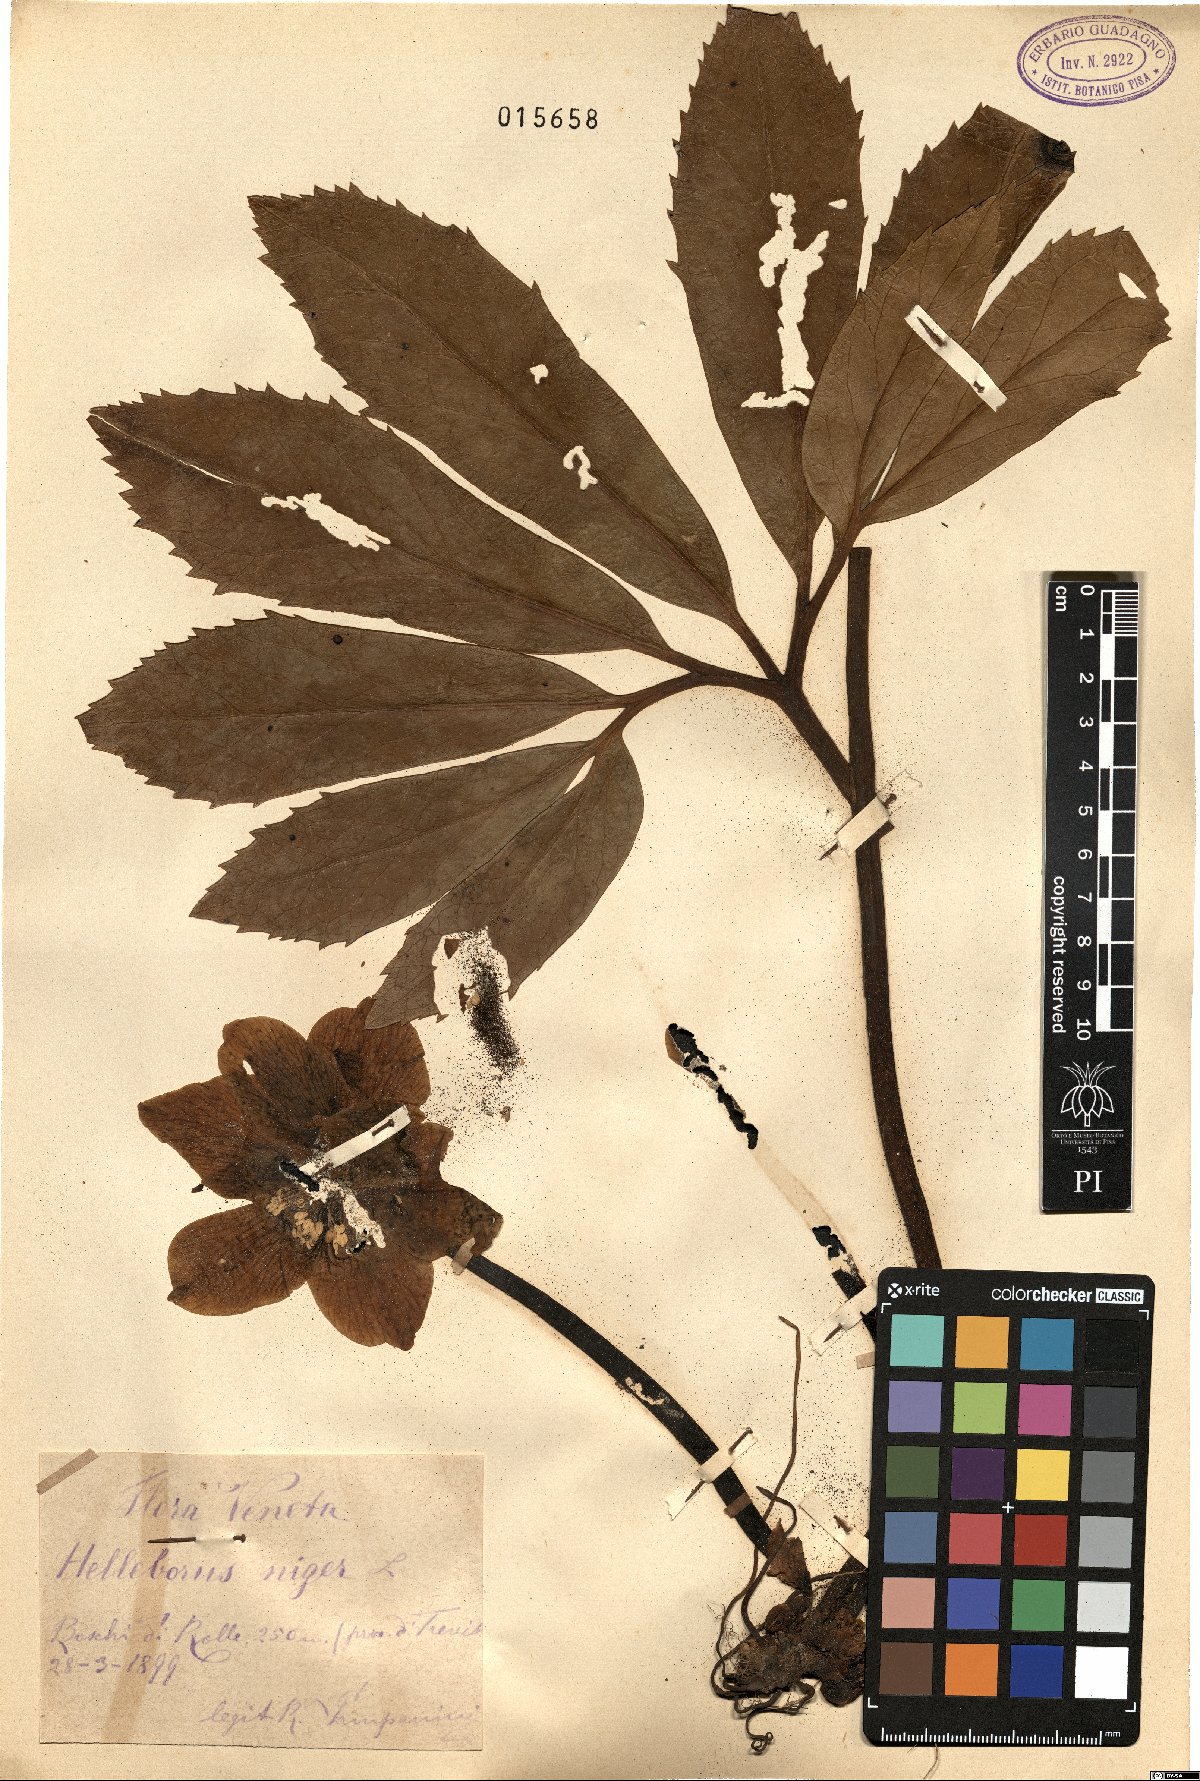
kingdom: Plantae
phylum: Tracheophyta
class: Magnoliopsida
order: Ranunculales
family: Ranunculaceae
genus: Helleborus
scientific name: Helleborus niger
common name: Black hellebore
